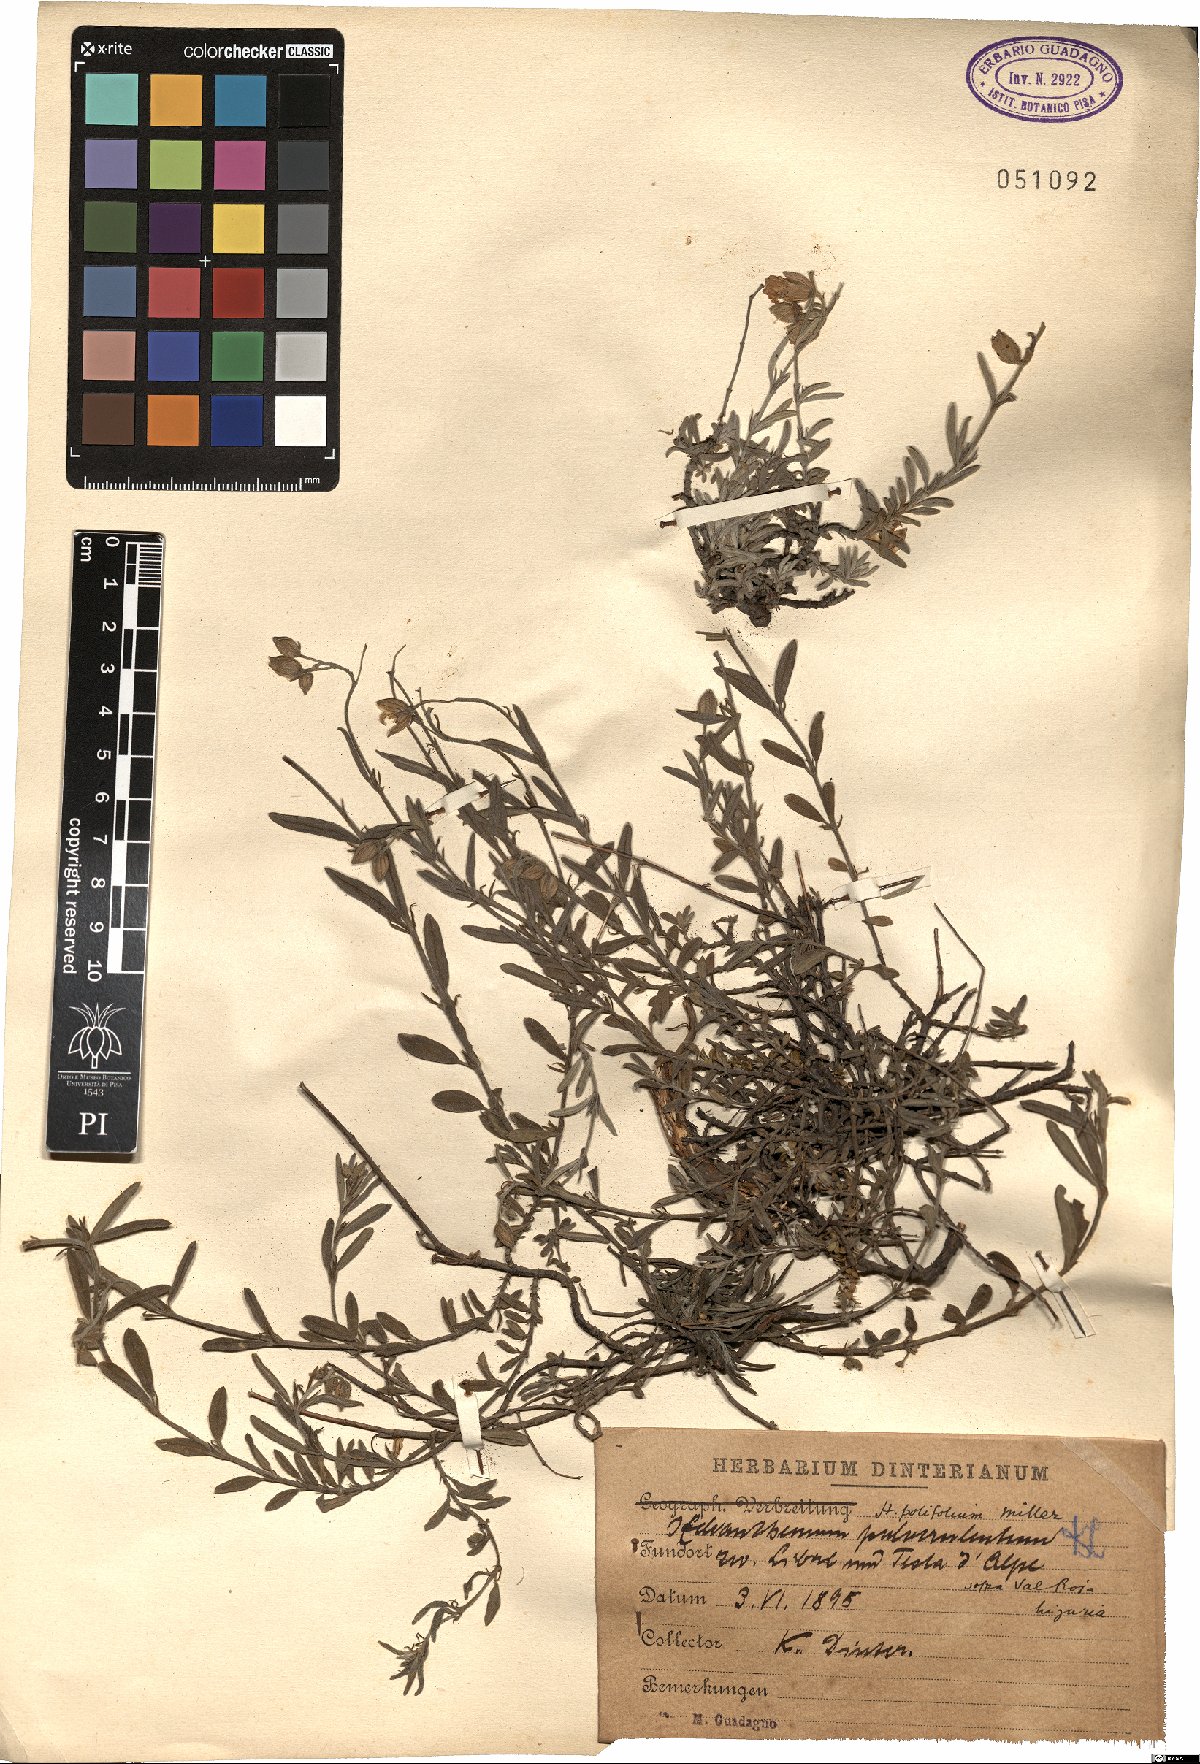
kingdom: Plantae
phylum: Tracheophyta
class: Magnoliopsida
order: Malvales
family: Cistaceae
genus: Helianthemum
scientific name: Helianthemum apenninum
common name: White rock-rose
